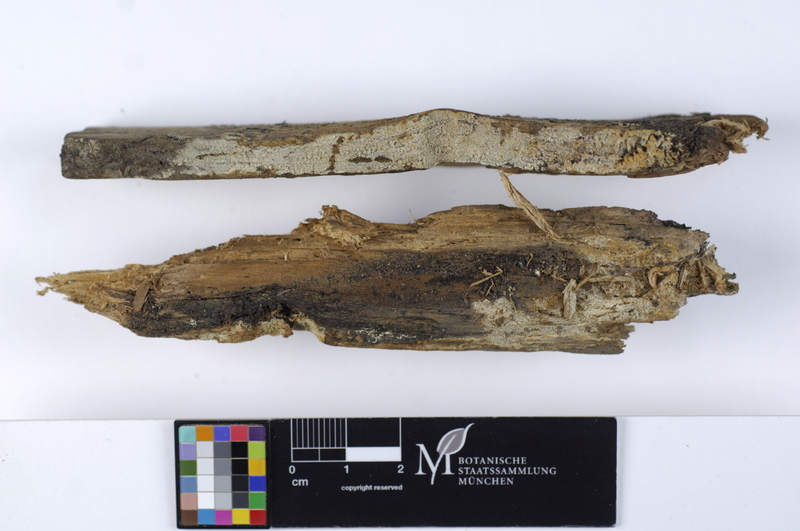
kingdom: Plantae
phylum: Tracheophyta
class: Magnoliopsida
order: Malpighiales
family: Salicaceae
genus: Populus
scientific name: Populus nigra
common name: Black poplar
